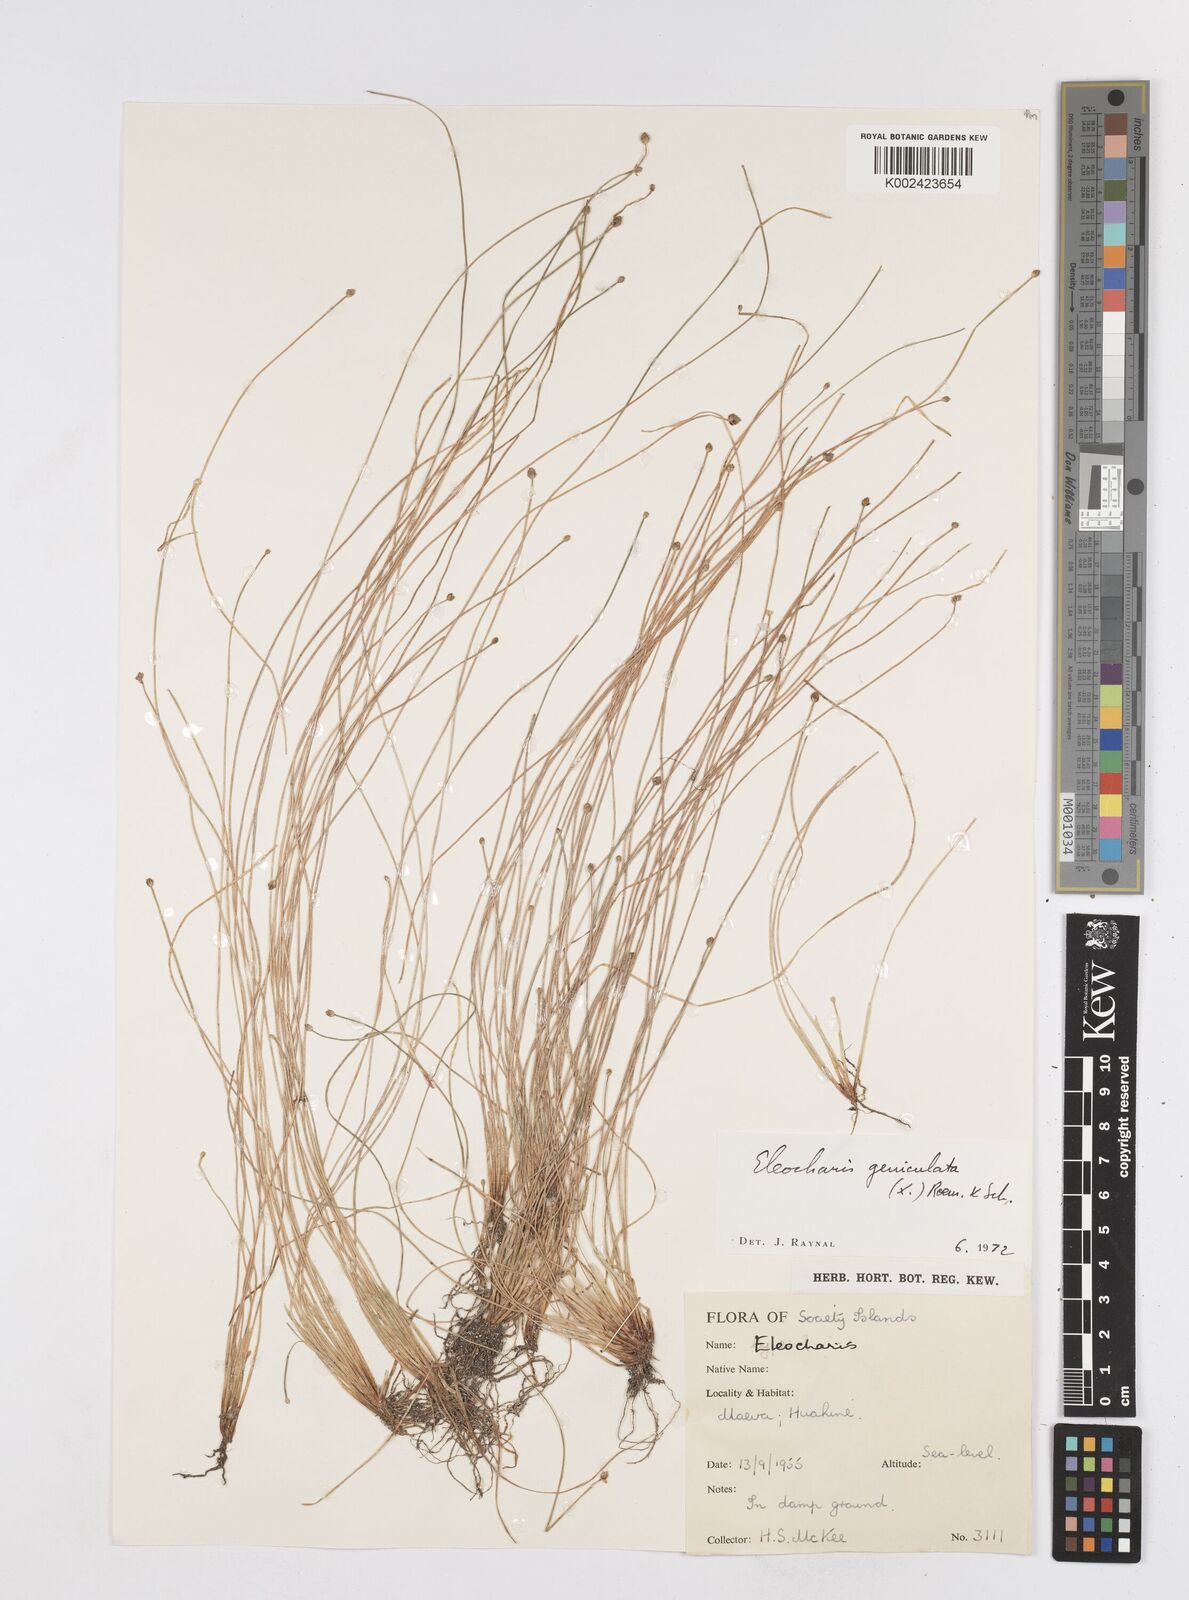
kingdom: Plantae
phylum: Tracheophyta
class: Liliopsida
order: Poales
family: Cyperaceae
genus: Eleocharis
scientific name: Eleocharis geniculata
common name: Canada spikesedge
